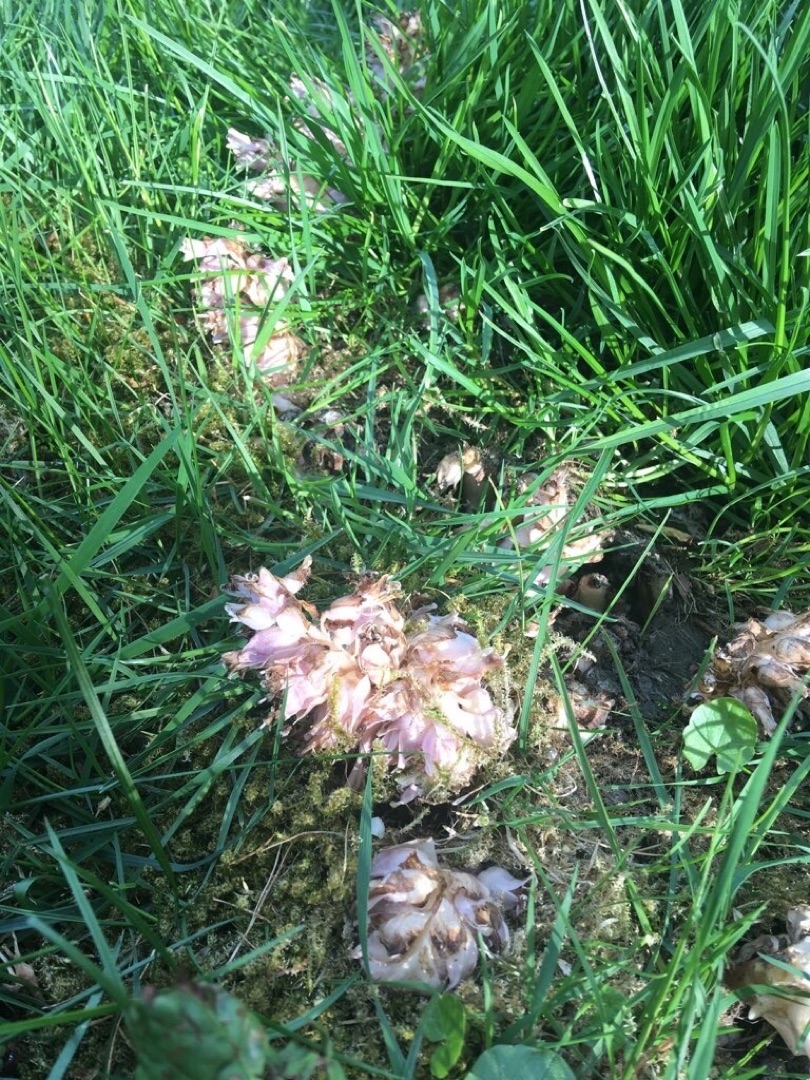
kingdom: Plantae
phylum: Tracheophyta
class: Magnoliopsida
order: Lamiales
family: Orobanchaceae
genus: Lathraea
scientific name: Lathraea squamaria
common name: Skælrod
